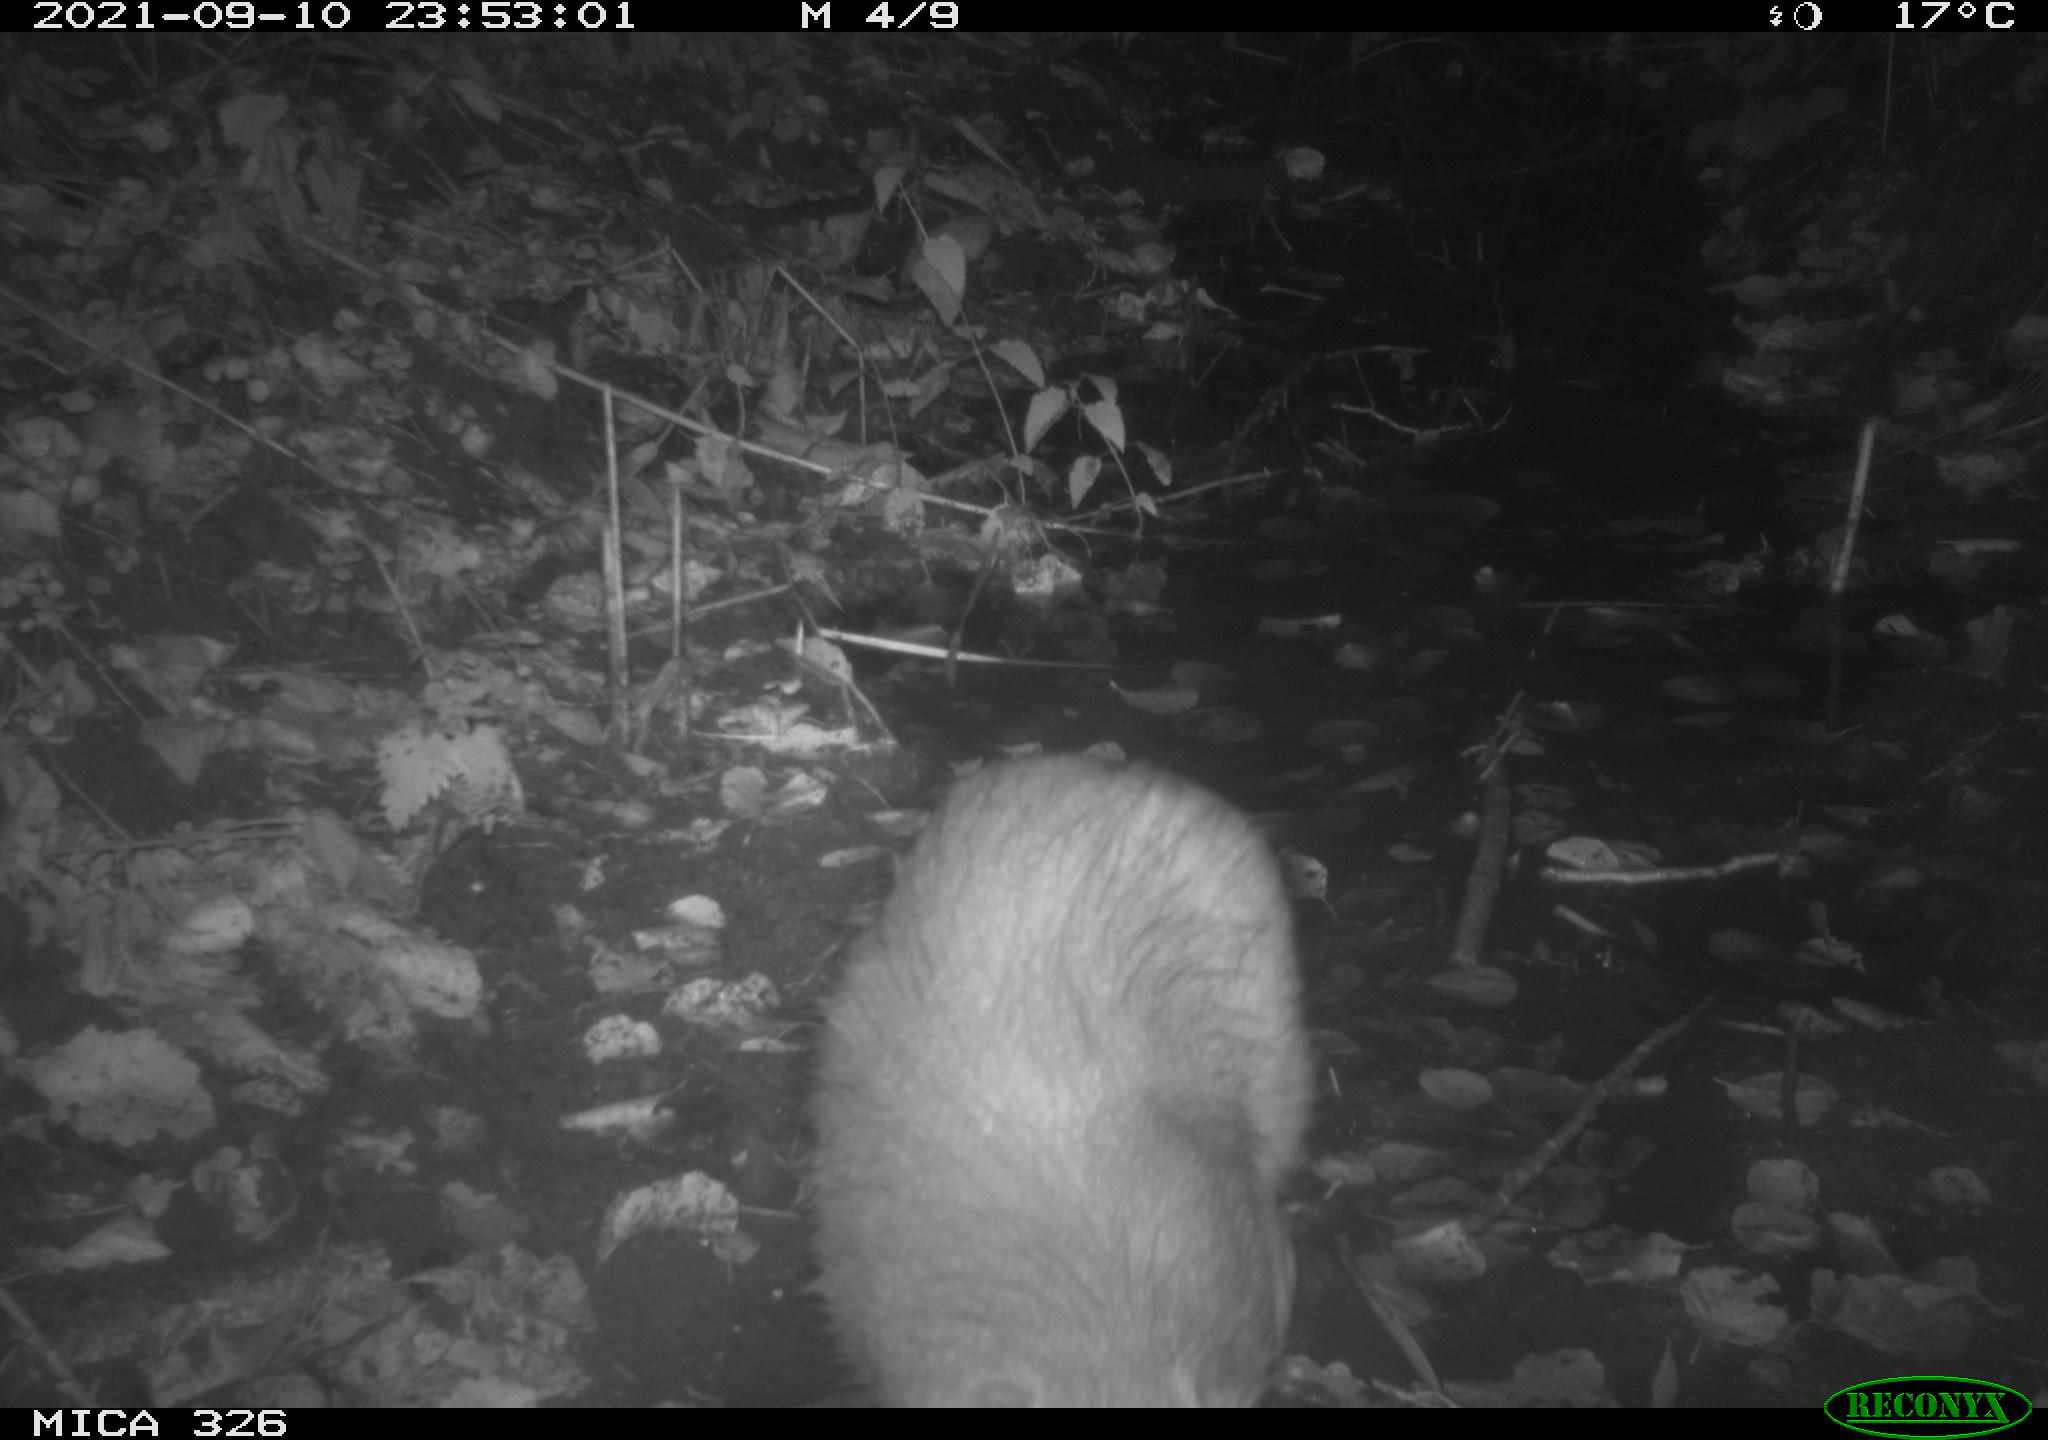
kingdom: Animalia
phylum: Chordata
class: Mammalia
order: Rodentia
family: Myocastoridae
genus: Myocastor
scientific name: Myocastor coypus
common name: Coypu
